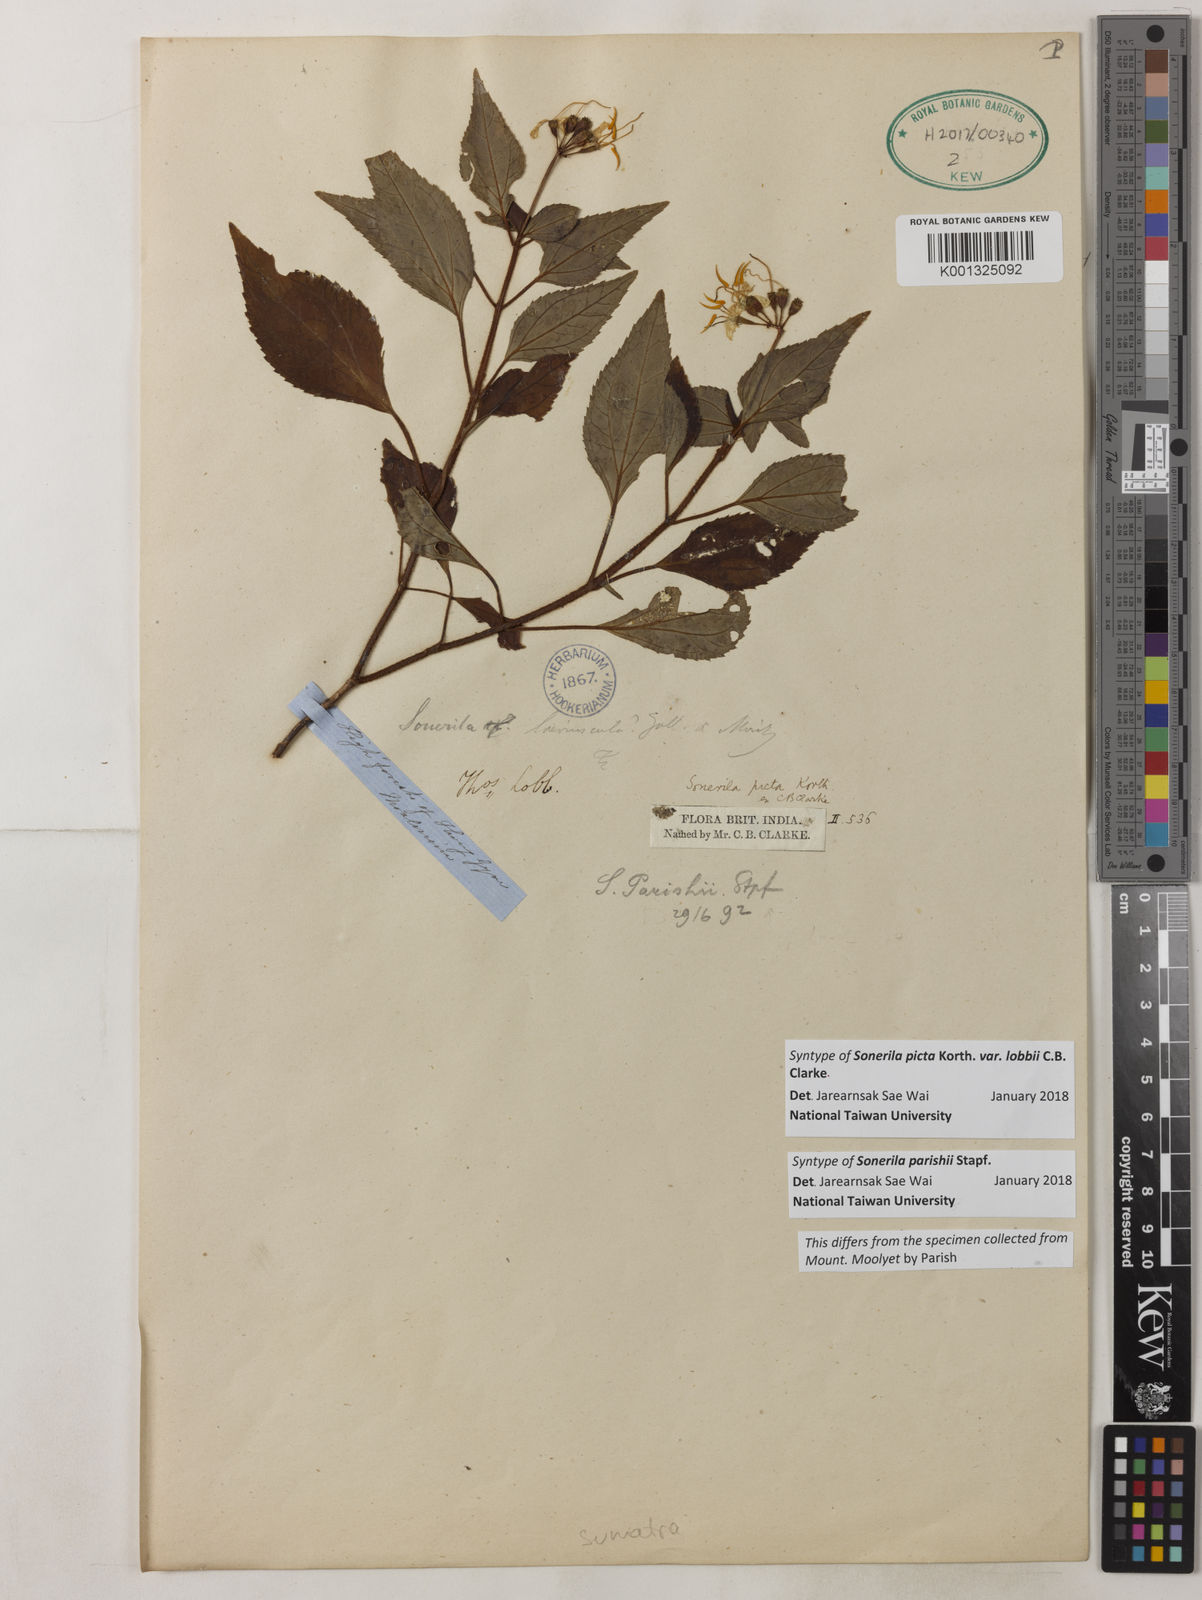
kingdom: Plantae
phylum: Tracheophyta
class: Magnoliopsida
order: Myrtales
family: Melastomataceae
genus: Sonerila
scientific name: Sonerila parishii
